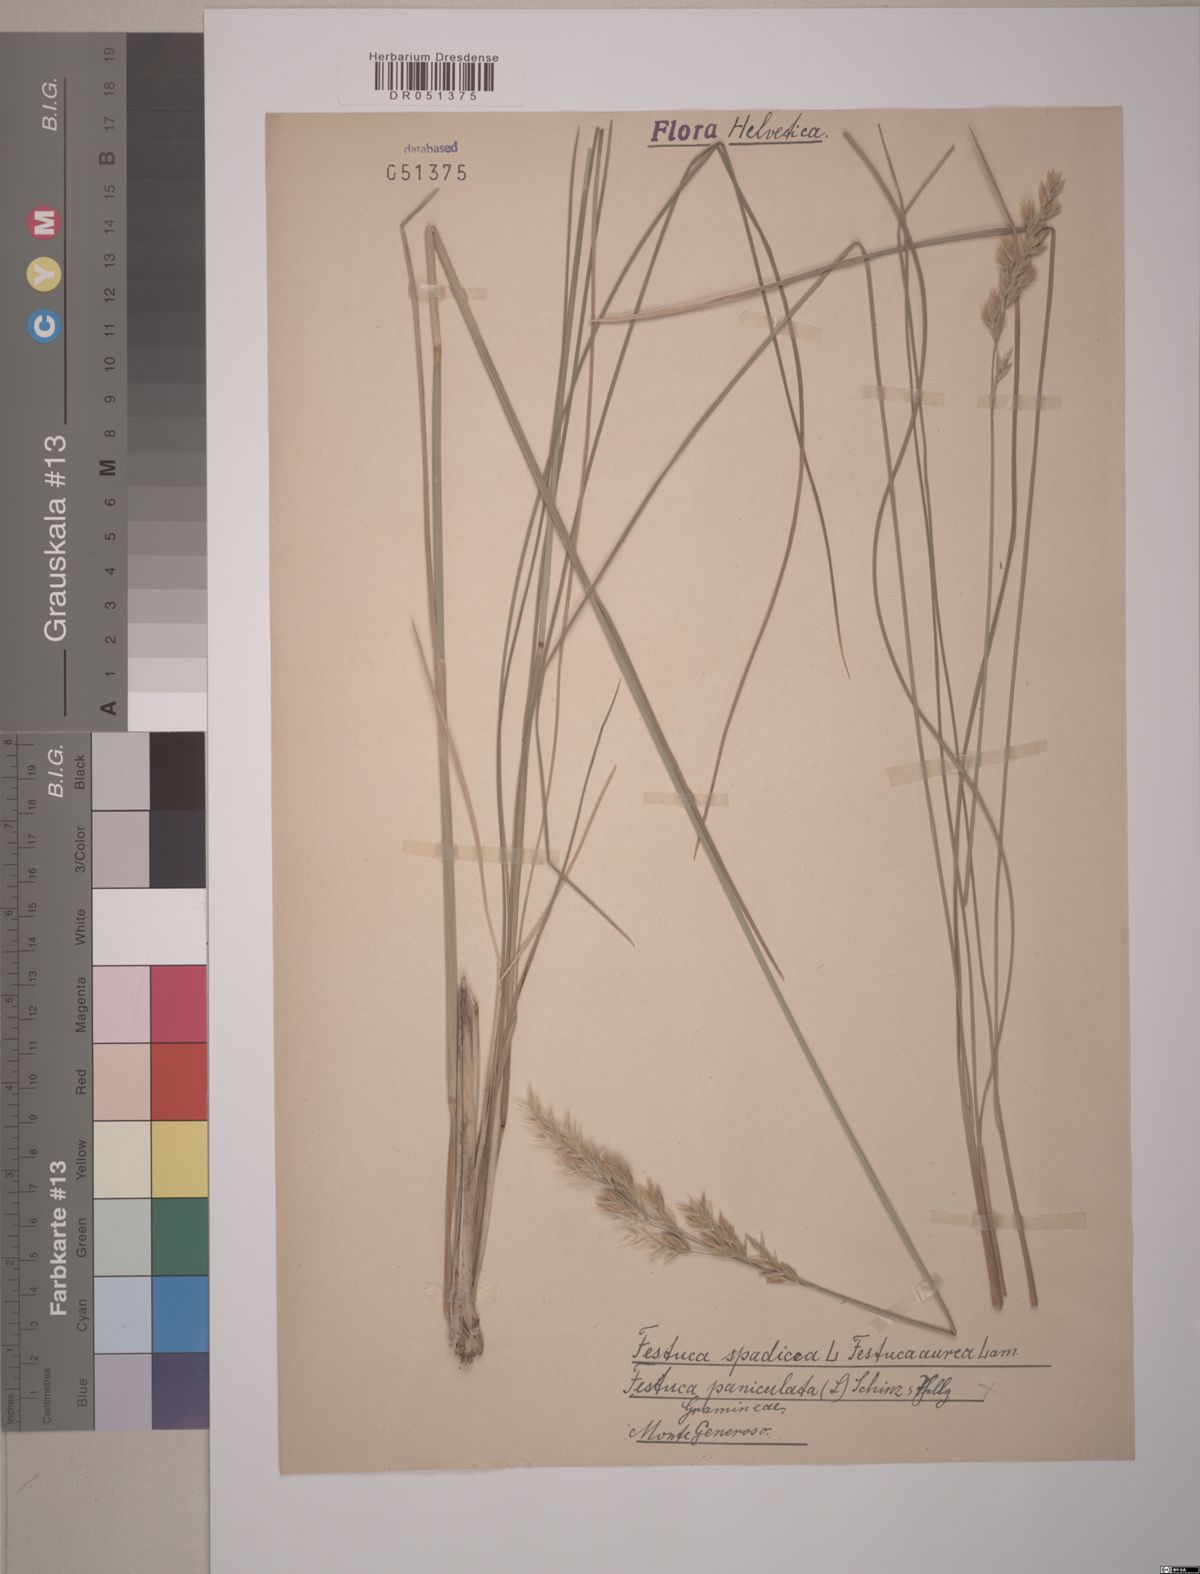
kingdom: Plantae
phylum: Tracheophyta
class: Liliopsida
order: Poales
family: Poaceae
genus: Patzkea
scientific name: Patzkea paniculata
